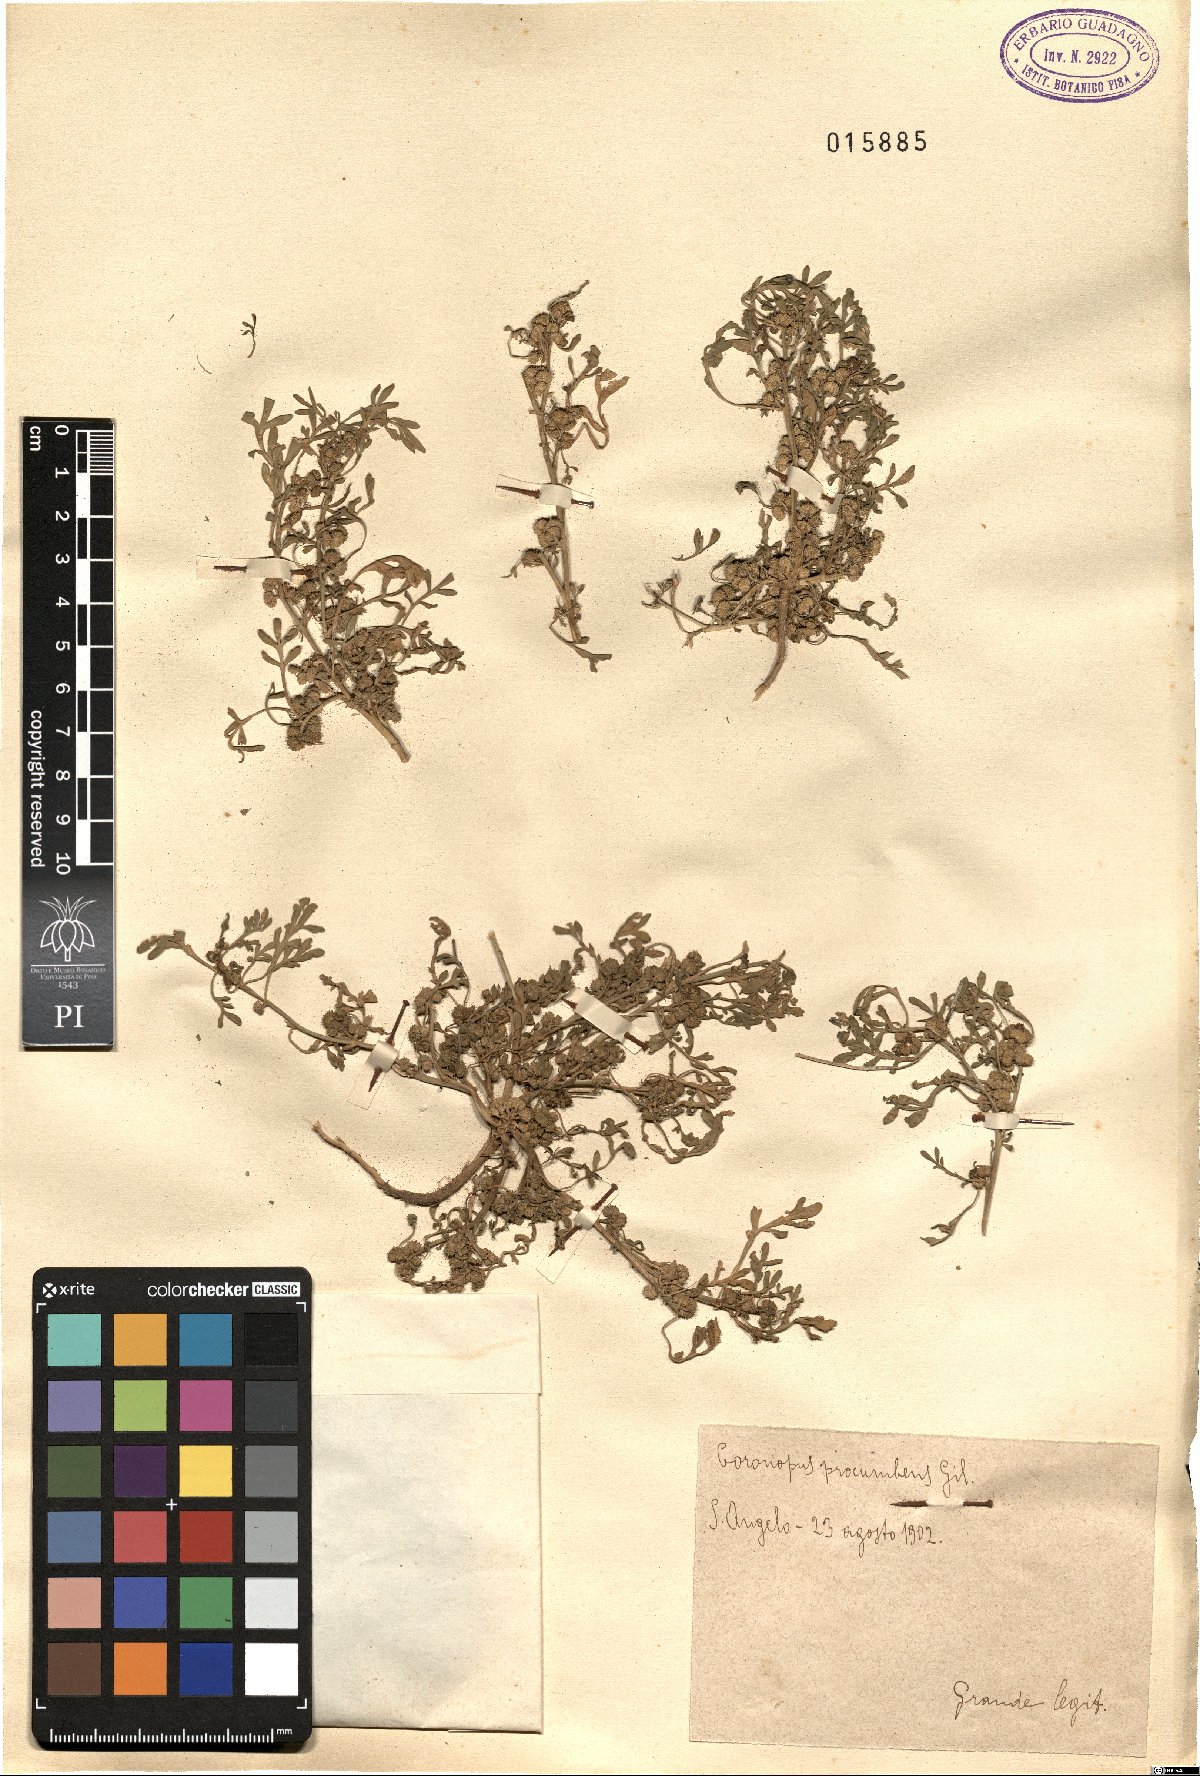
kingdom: Plantae
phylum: Tracheophyta
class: Magnoliopsida
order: Brassicales
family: Brassicaceae
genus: Lepidium
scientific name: Lepidium coronopus
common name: Greater swinecress
